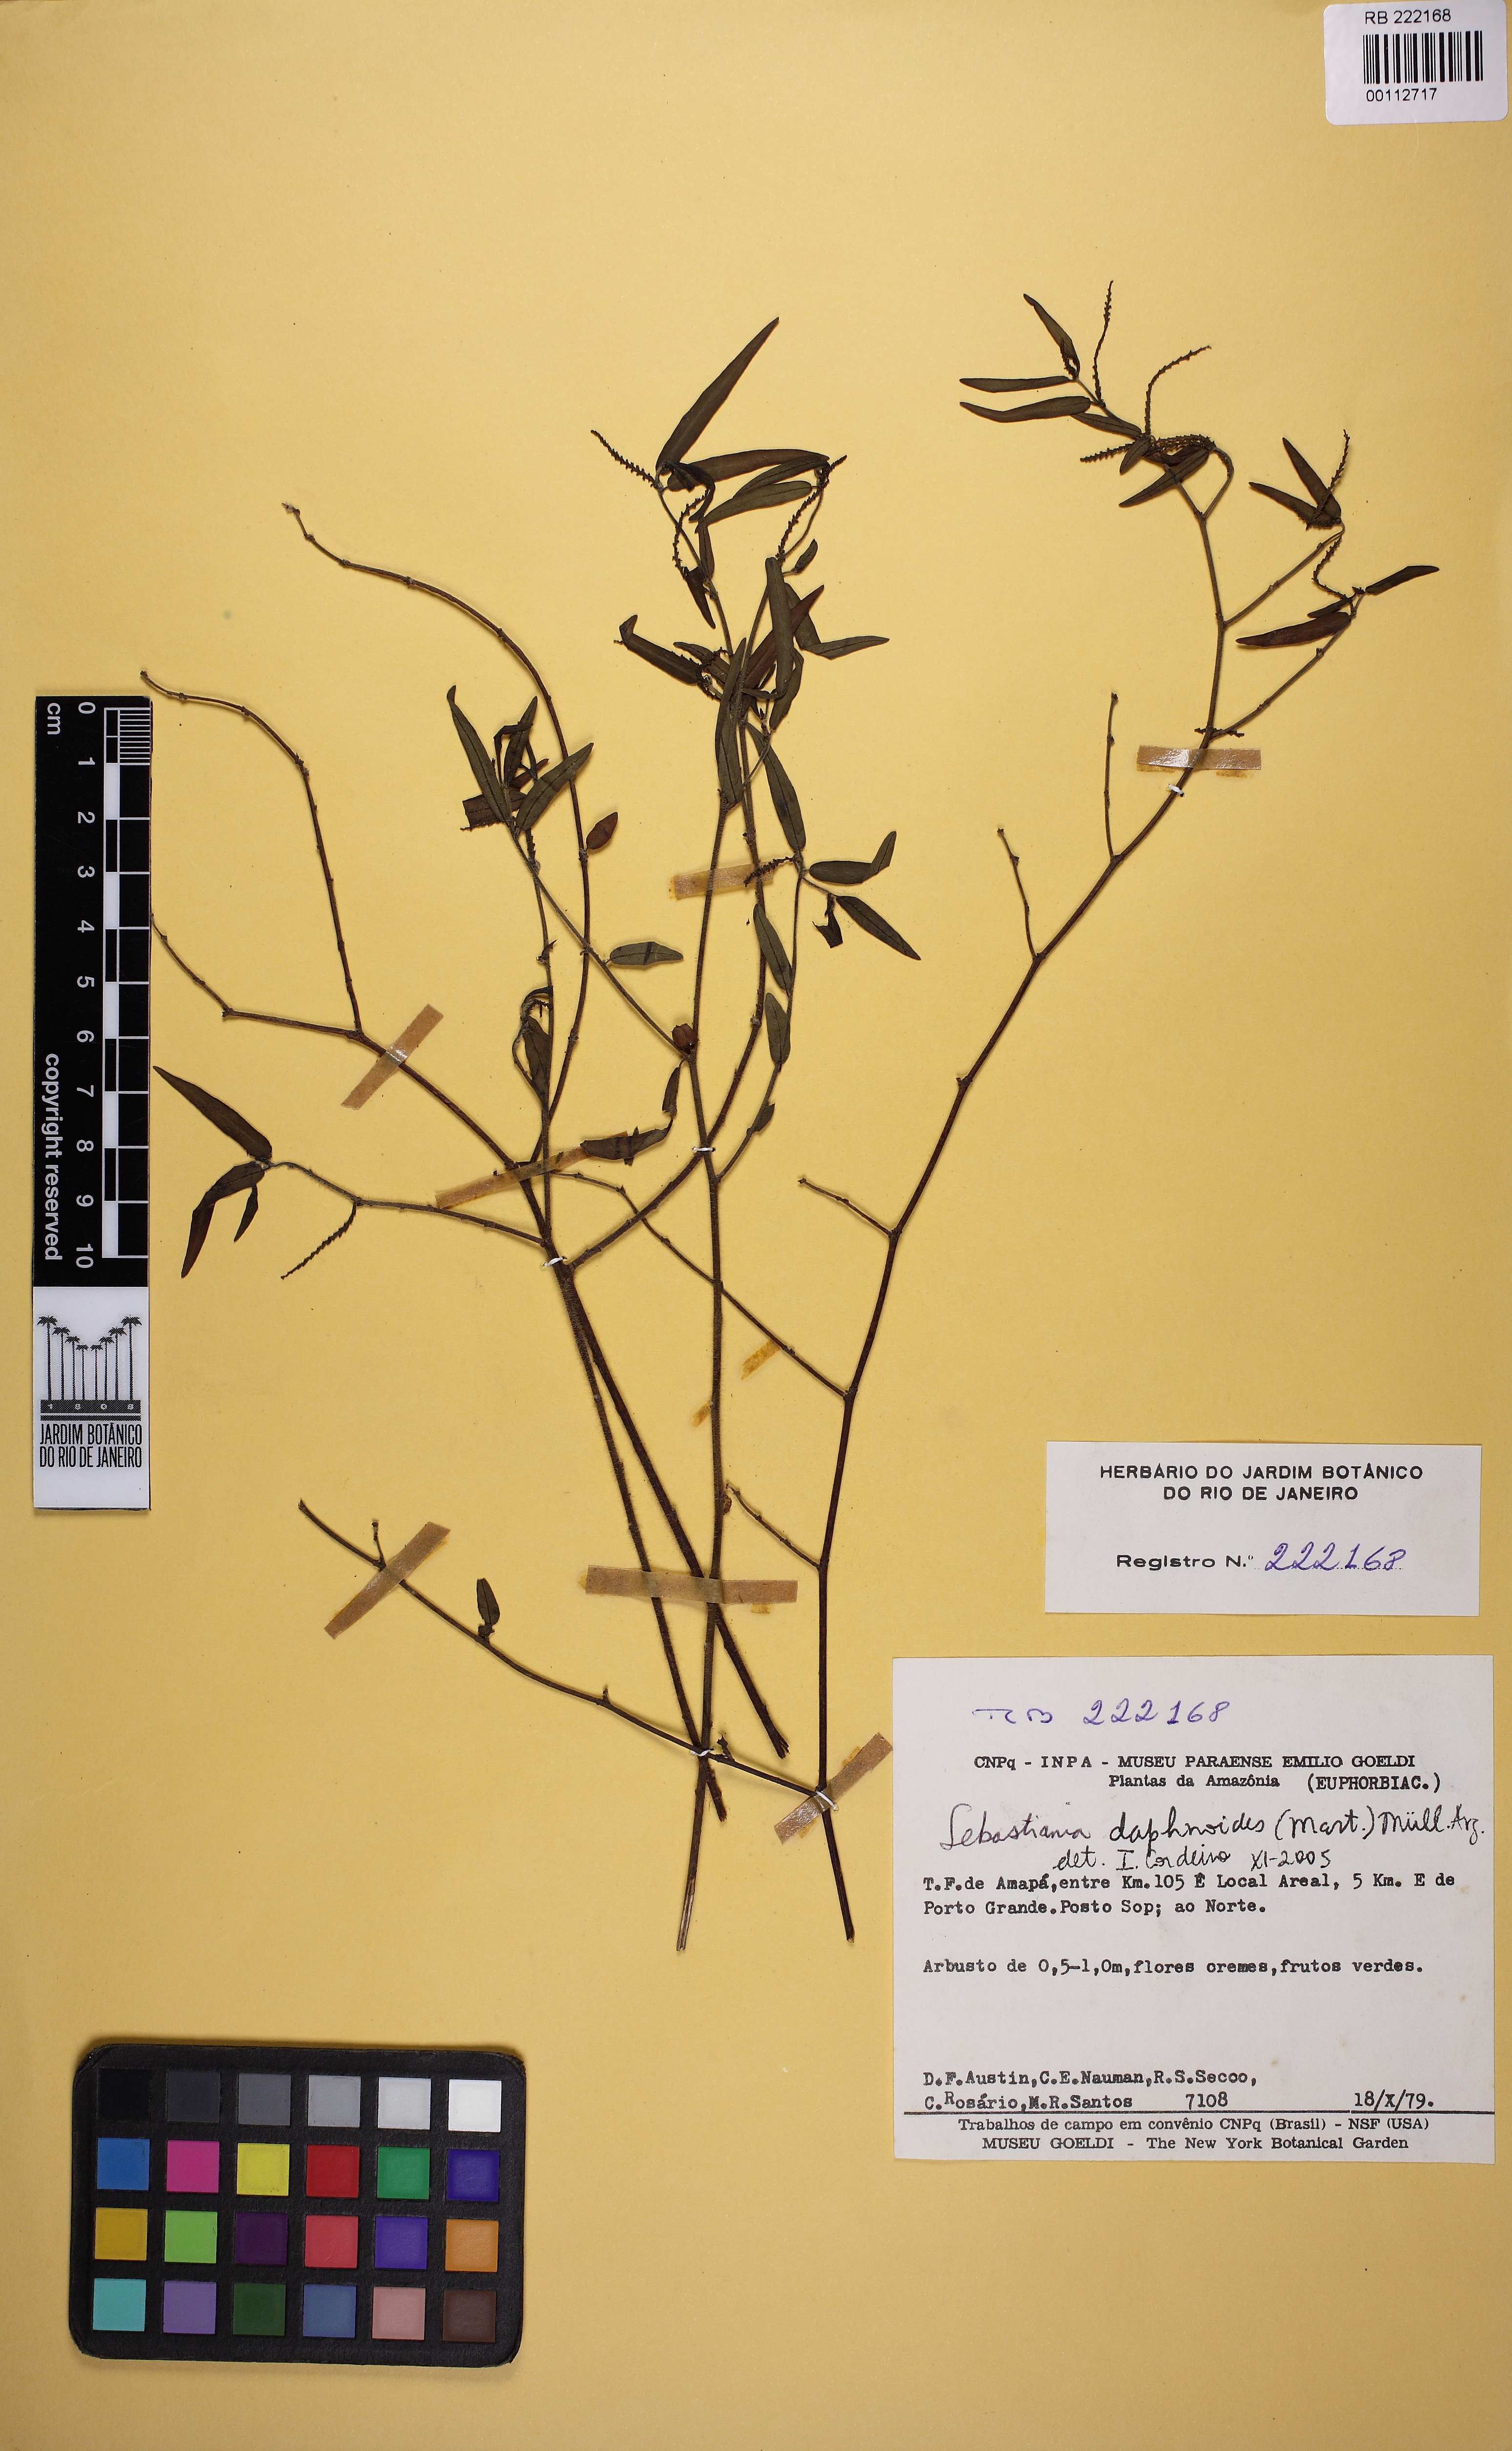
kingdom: Plantae
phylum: Tracheophyta
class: Magnoliopsida
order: Malpighiales
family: Euphorbiaceae
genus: Microstachys
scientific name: Microstachys
